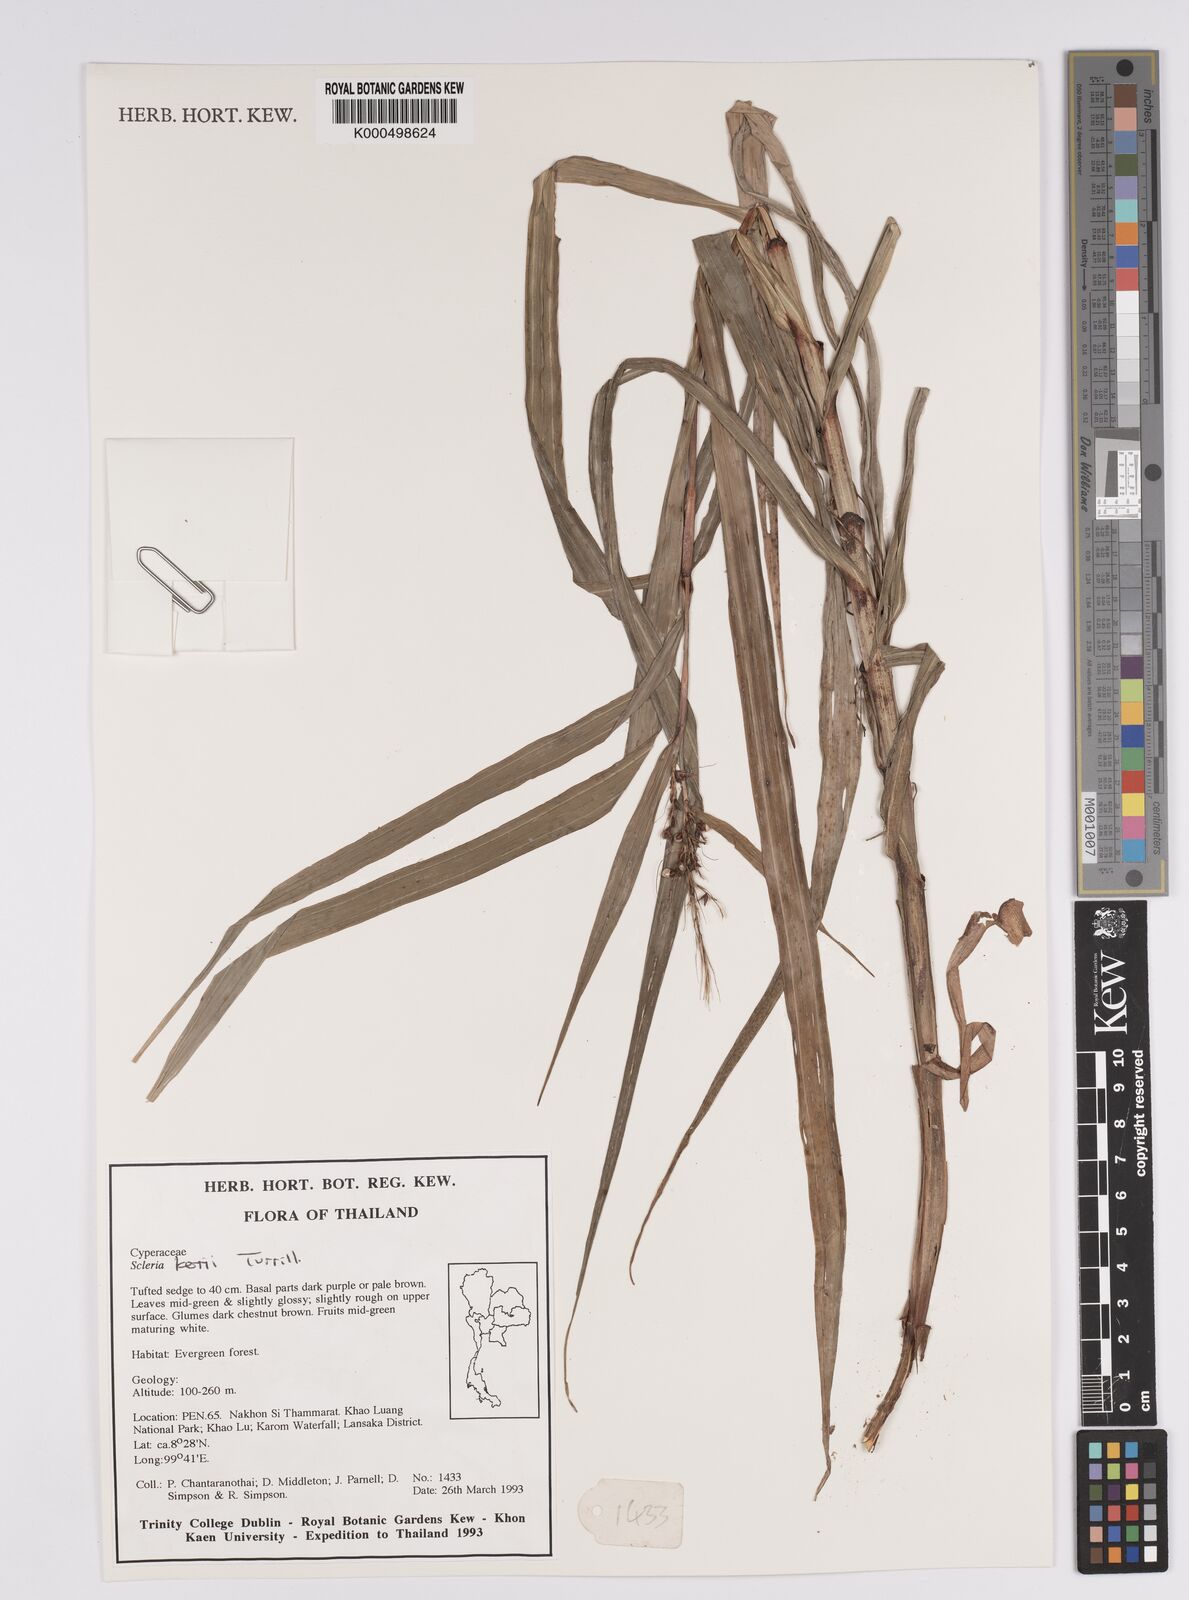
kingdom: Plantae
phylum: Tracheophyta
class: Liliopsida
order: Poales
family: Cyperaceae
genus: Scleria
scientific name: Scleria kerrii
